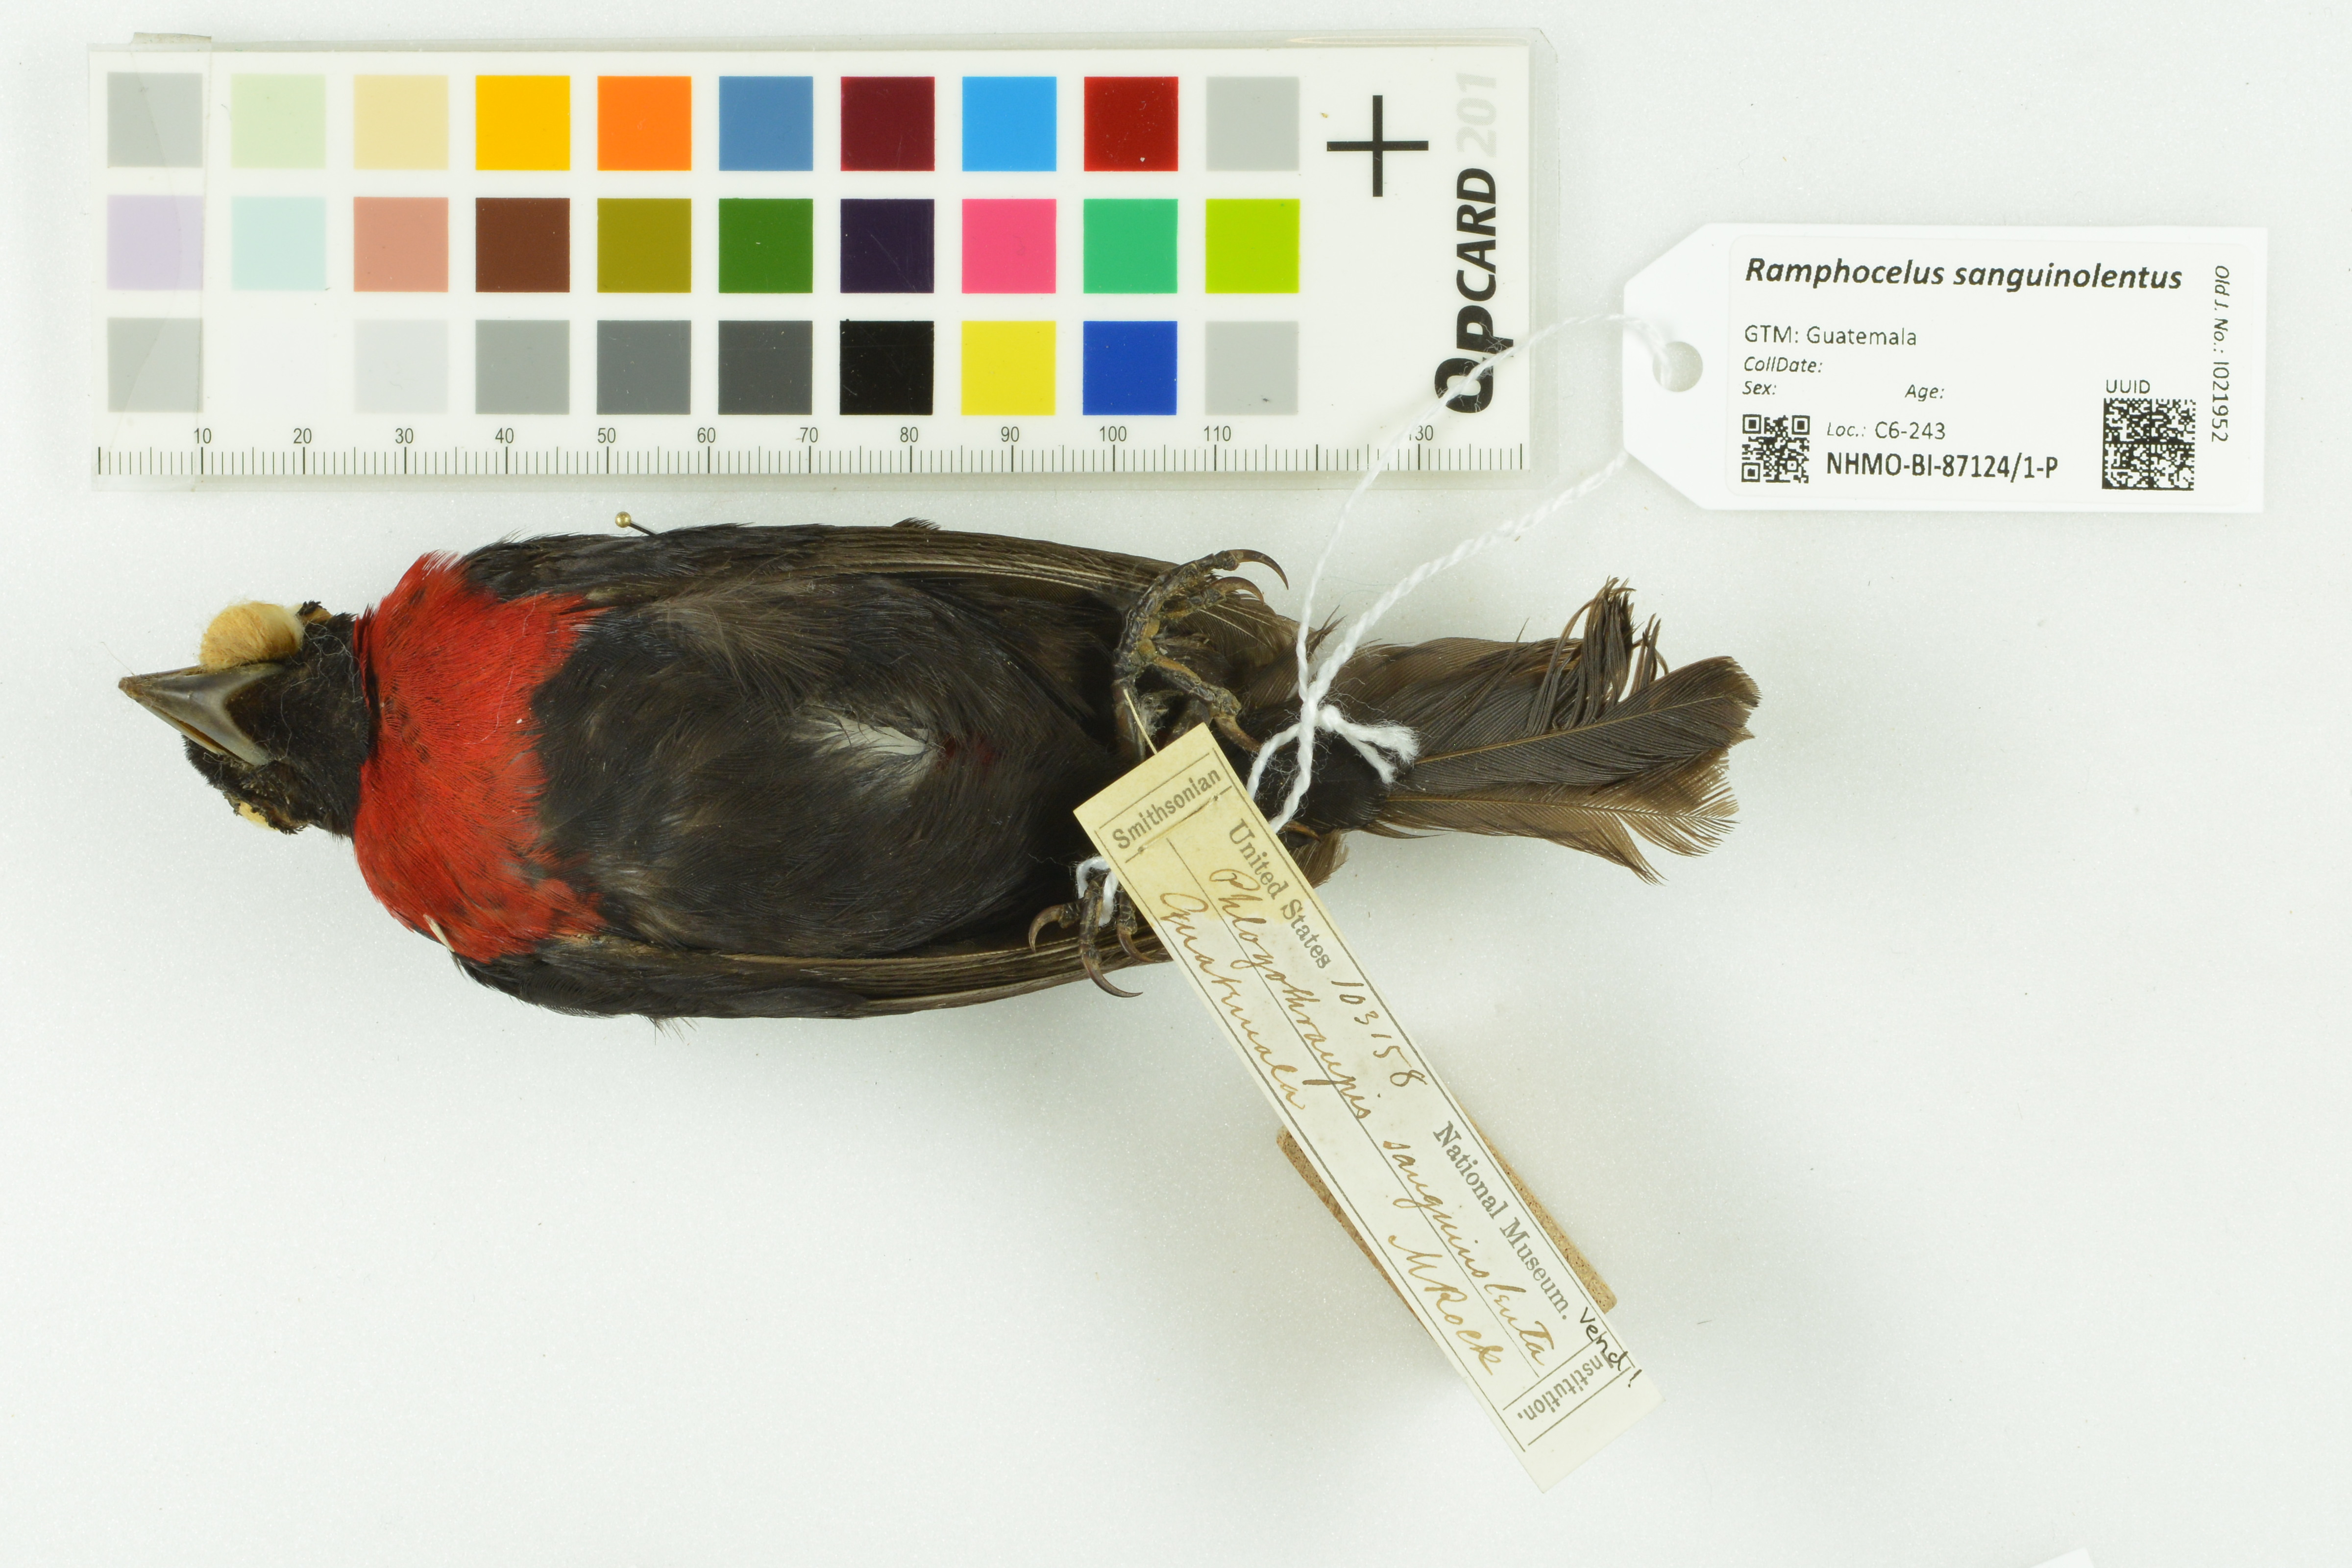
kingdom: Animalia
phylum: Chordata
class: Aves
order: Passeriformes
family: Thraupidae
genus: Ramphocelus
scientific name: Ramphocelus sanguinolentus
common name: Crimson-collared tanager
